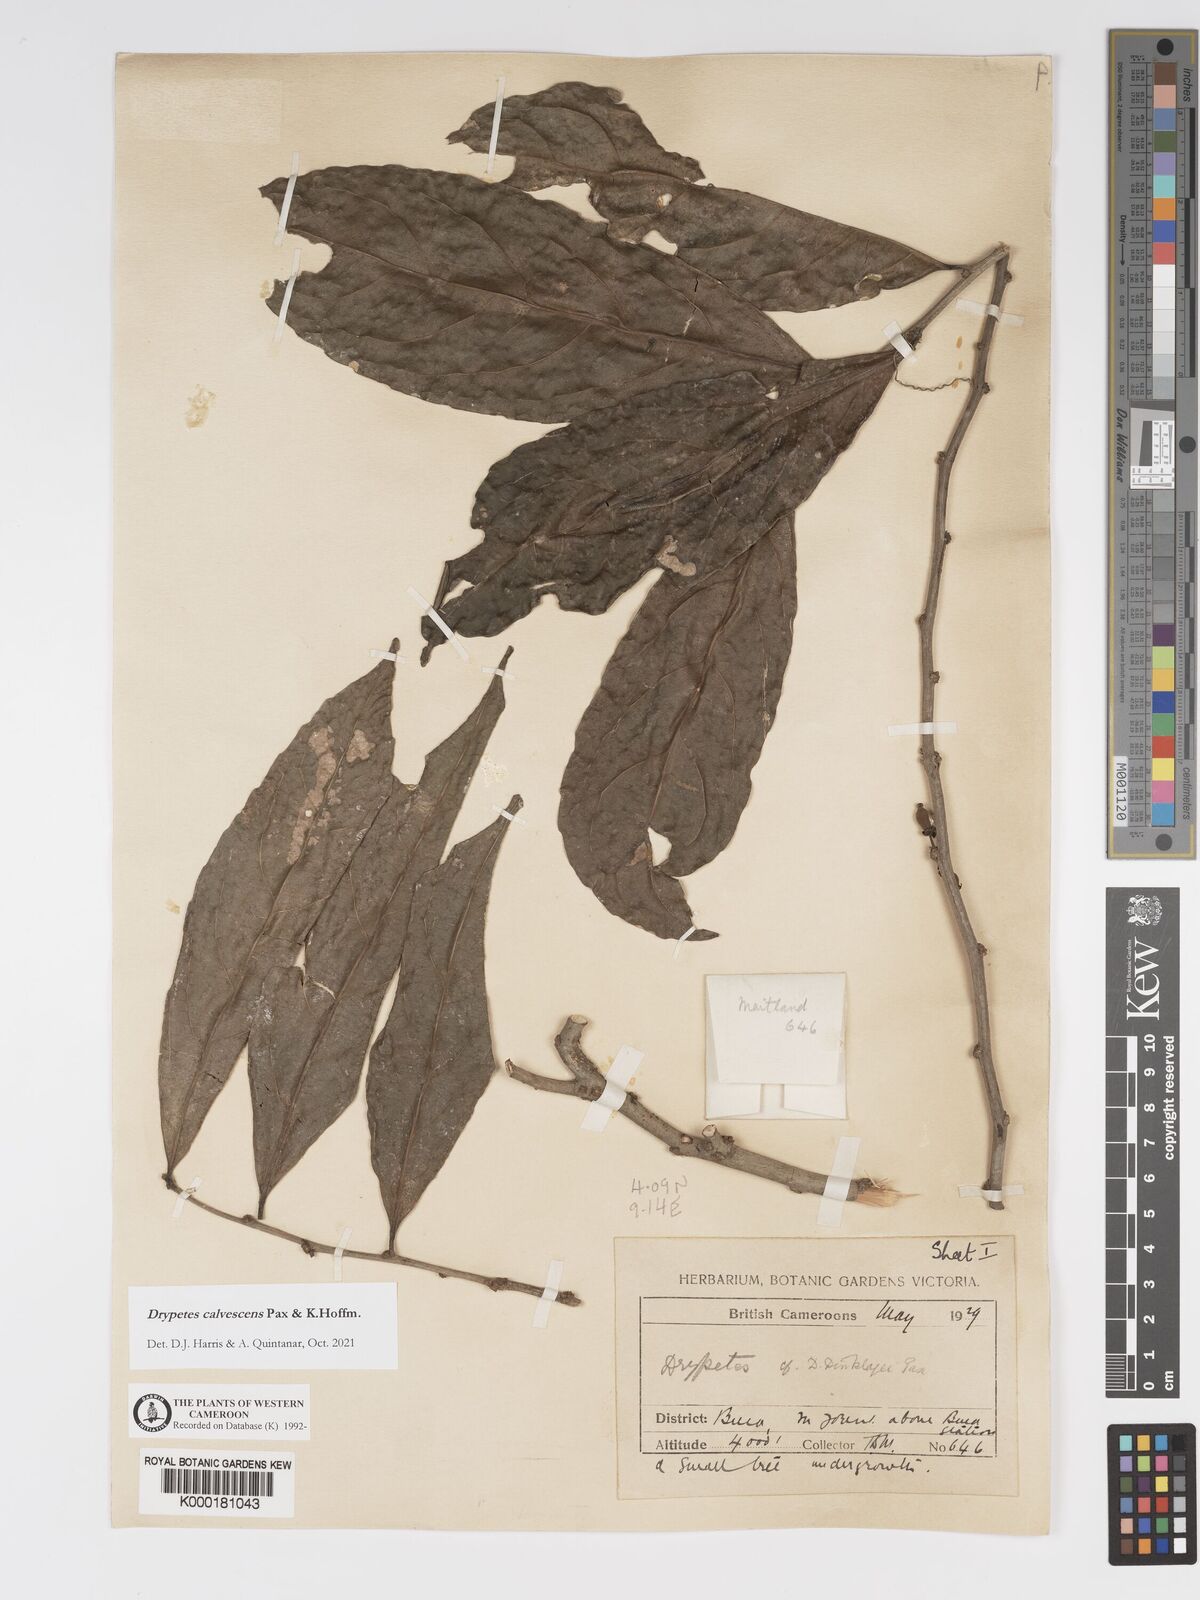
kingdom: Plantae
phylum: Tracheophyta
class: Magnoliopsida
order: Malpighiales
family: Putranjivaceae
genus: Drypetes
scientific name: Drypetes
